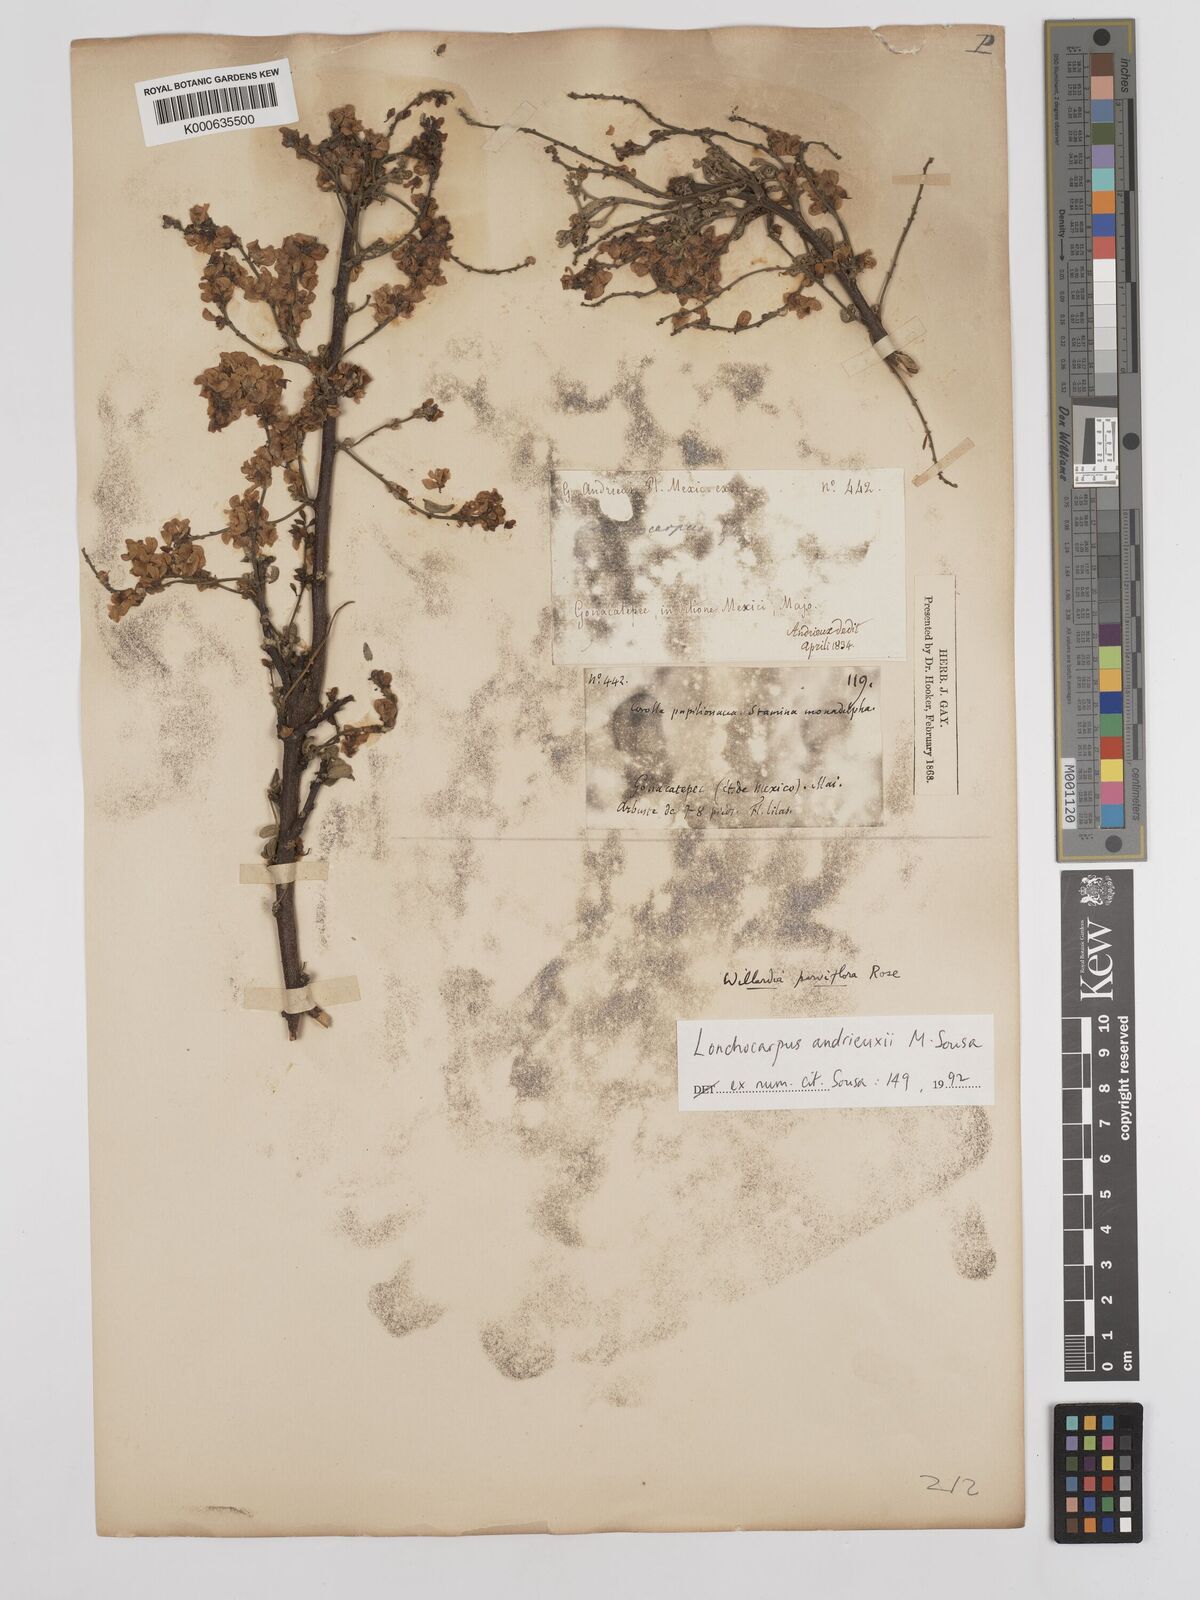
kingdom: Plantae
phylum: Tracheophyta
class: Magnoliopsida
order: Fabales
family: Fabaceae
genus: Lonchocarpus
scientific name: Lonchocarpus andrieuxii
